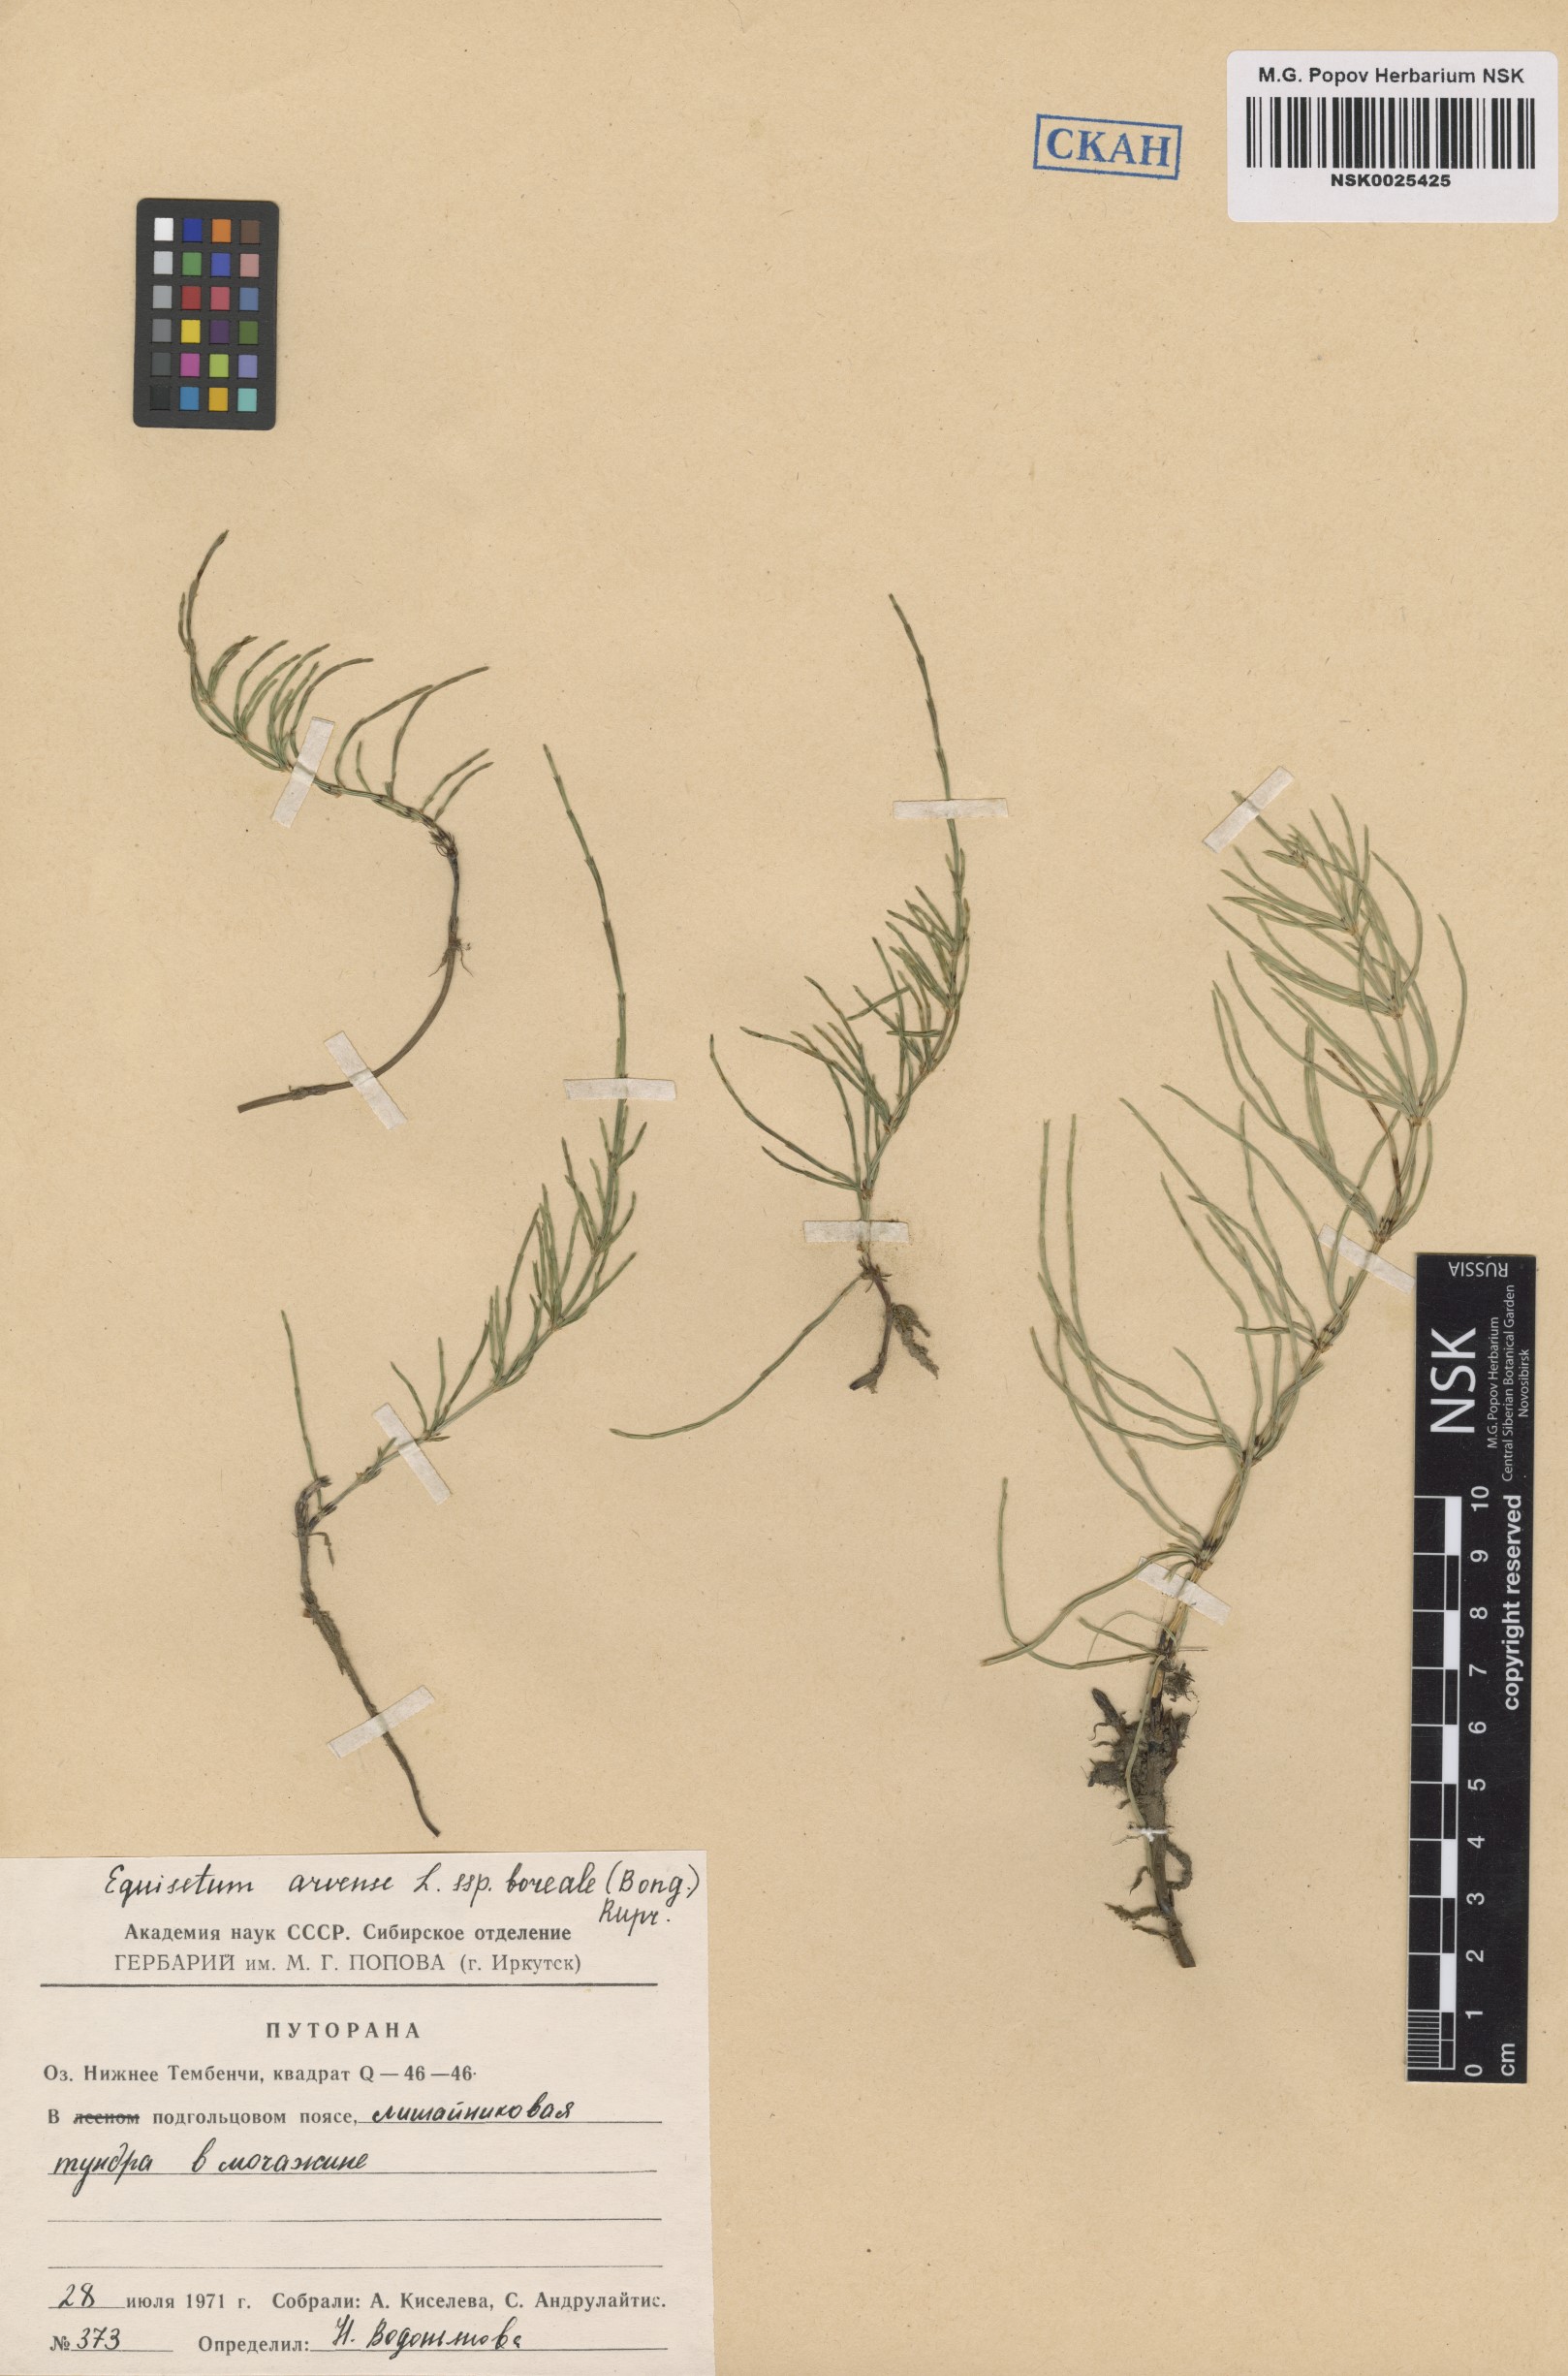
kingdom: Plantae
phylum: Tracheophyta
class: Polypodiopsida
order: Equisetales
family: Equisetaceae
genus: Equisetum
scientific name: Equisetum arvense
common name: Field horsetail
